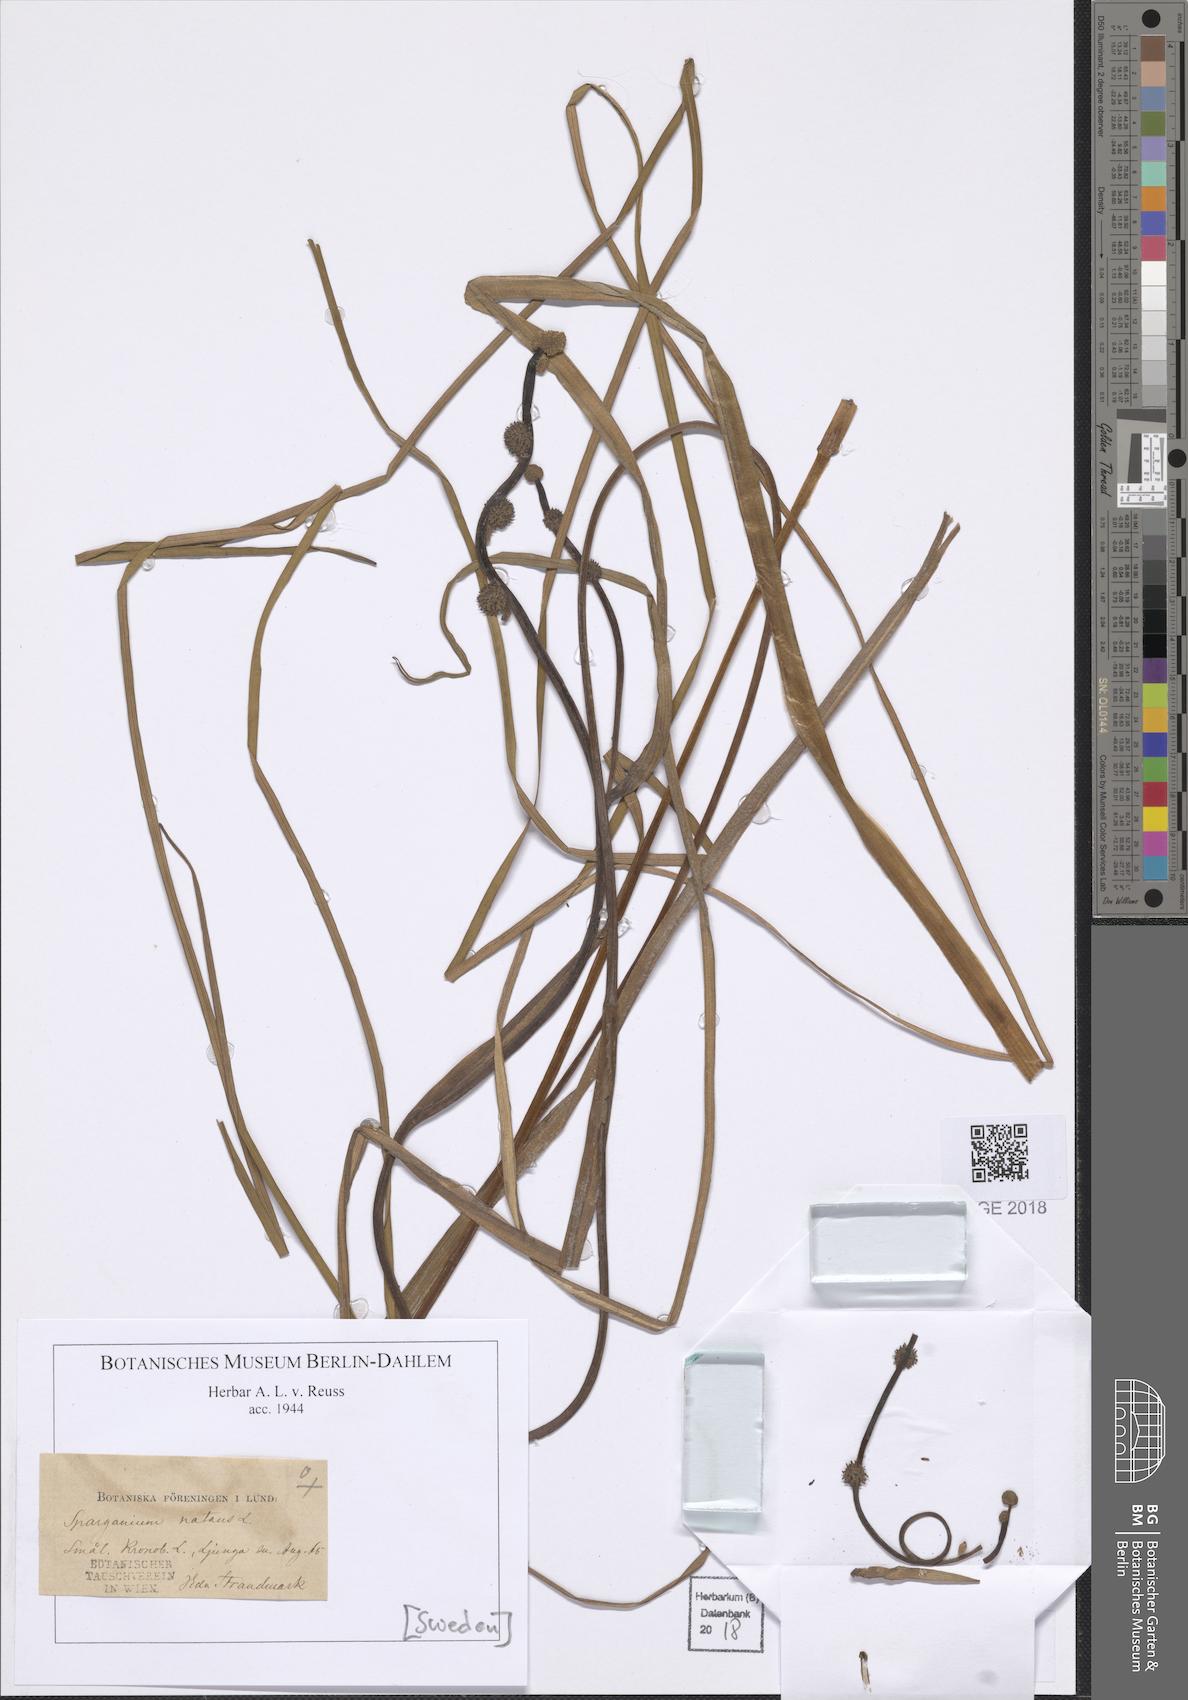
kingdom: Plantae
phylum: Tracheophyta
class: Liliopsida
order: Poales
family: Typhaceae
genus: Sparganium
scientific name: Sparganium natans
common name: Least bur-reed
